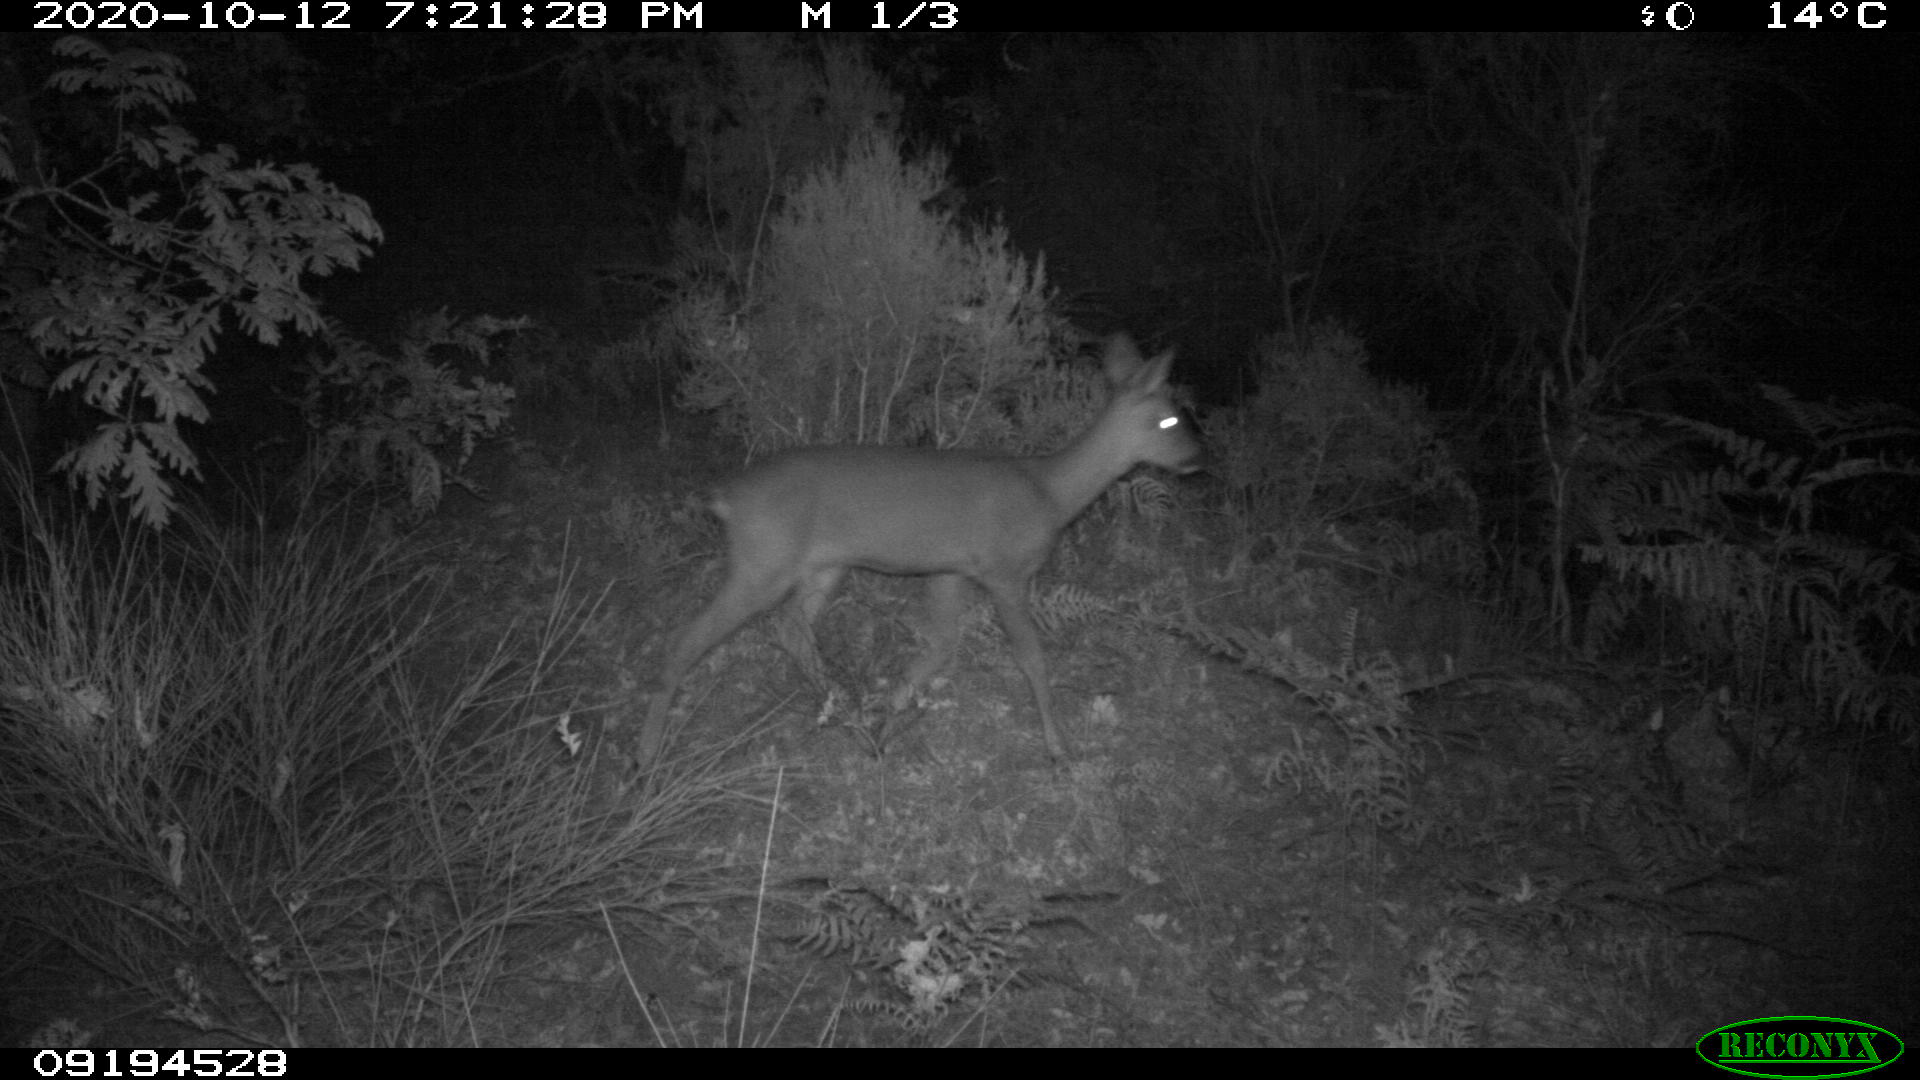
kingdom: Animalia
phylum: Chordata
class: Mammalia
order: Artiodactyla
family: Cervidae
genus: Capreolus
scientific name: Capreolus capreolus
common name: Western roe deer
